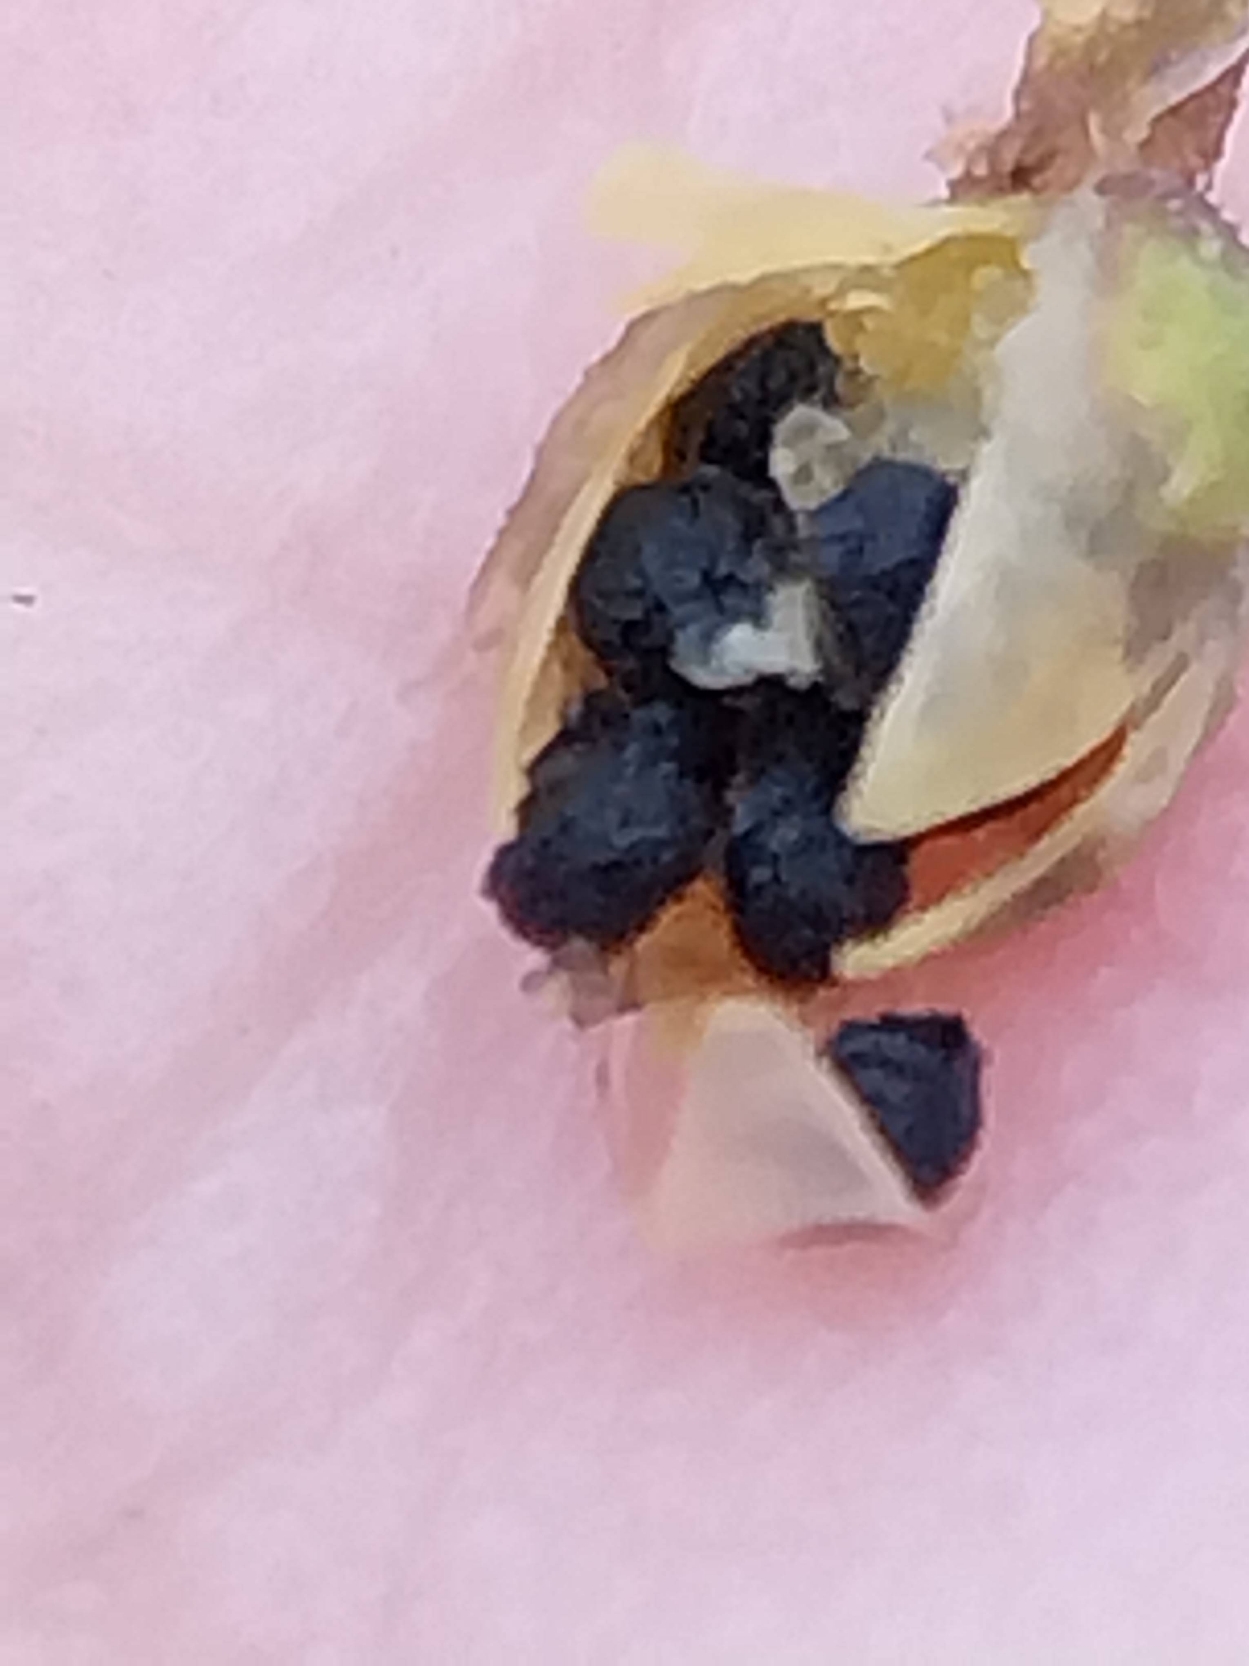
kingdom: Plantae
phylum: Tracheophyta
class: Magnoliopsida
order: Caryophyllales
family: Caryophyllaceae
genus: Spergula
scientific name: Spergula arvensis
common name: Almindelig spergel
